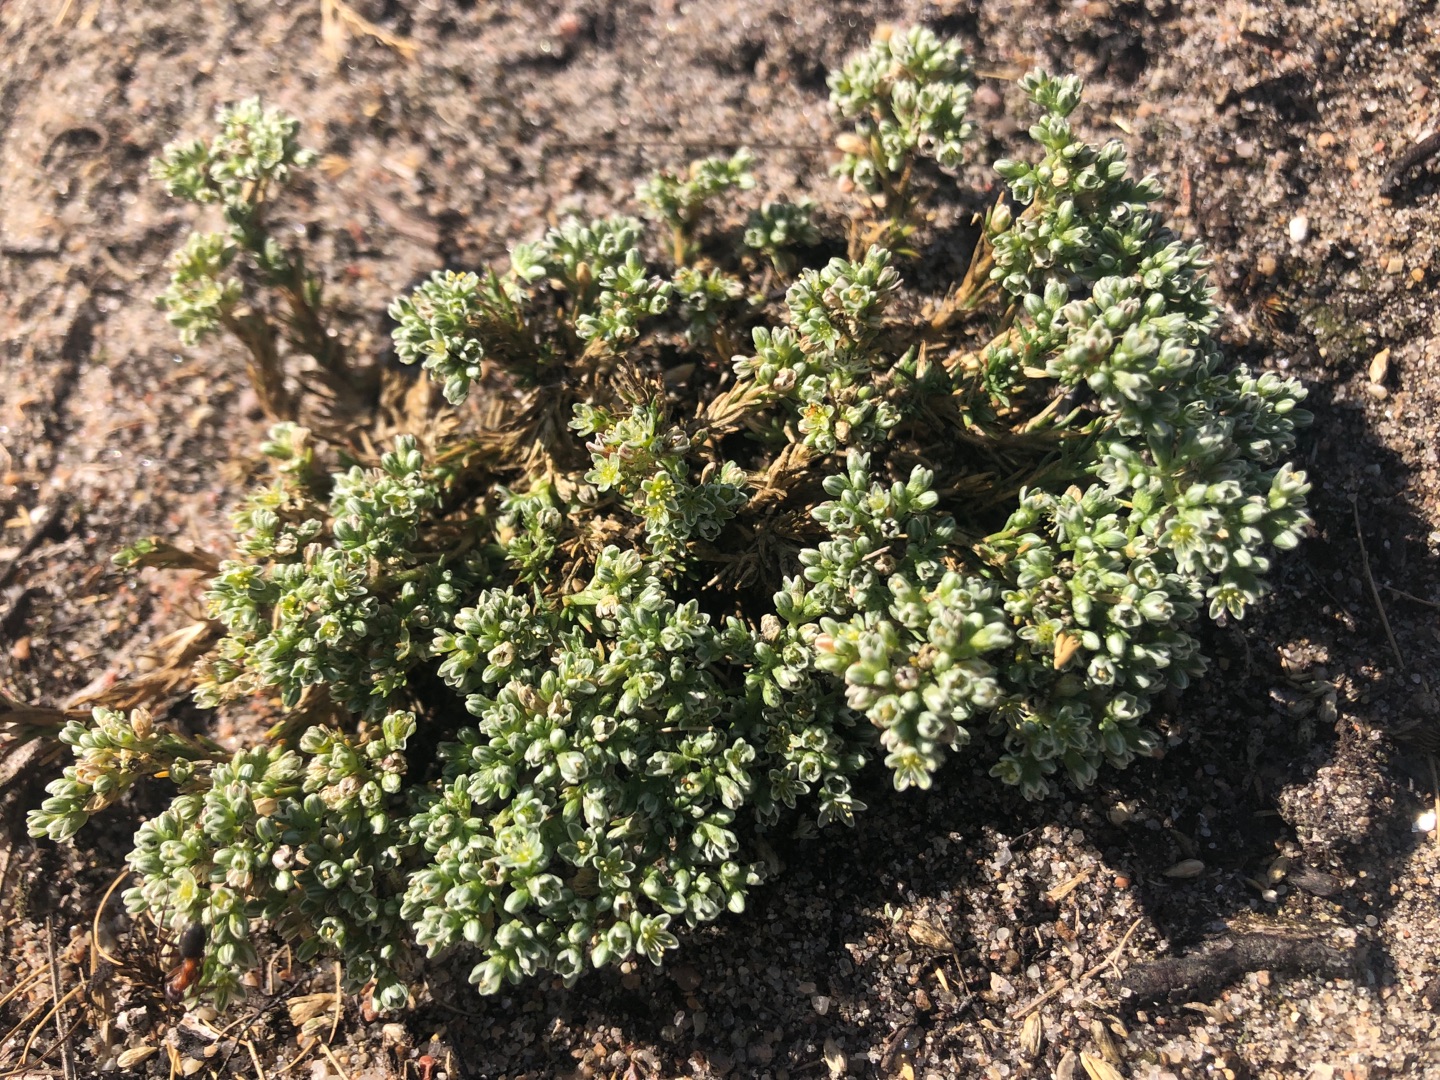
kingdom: Plantae
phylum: Tracheophyta
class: Magnoliopsida
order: Caryophyllales
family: Caryophyllaceae
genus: Scleranthus
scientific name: Scleranthus perennis
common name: Flerårig knavel
